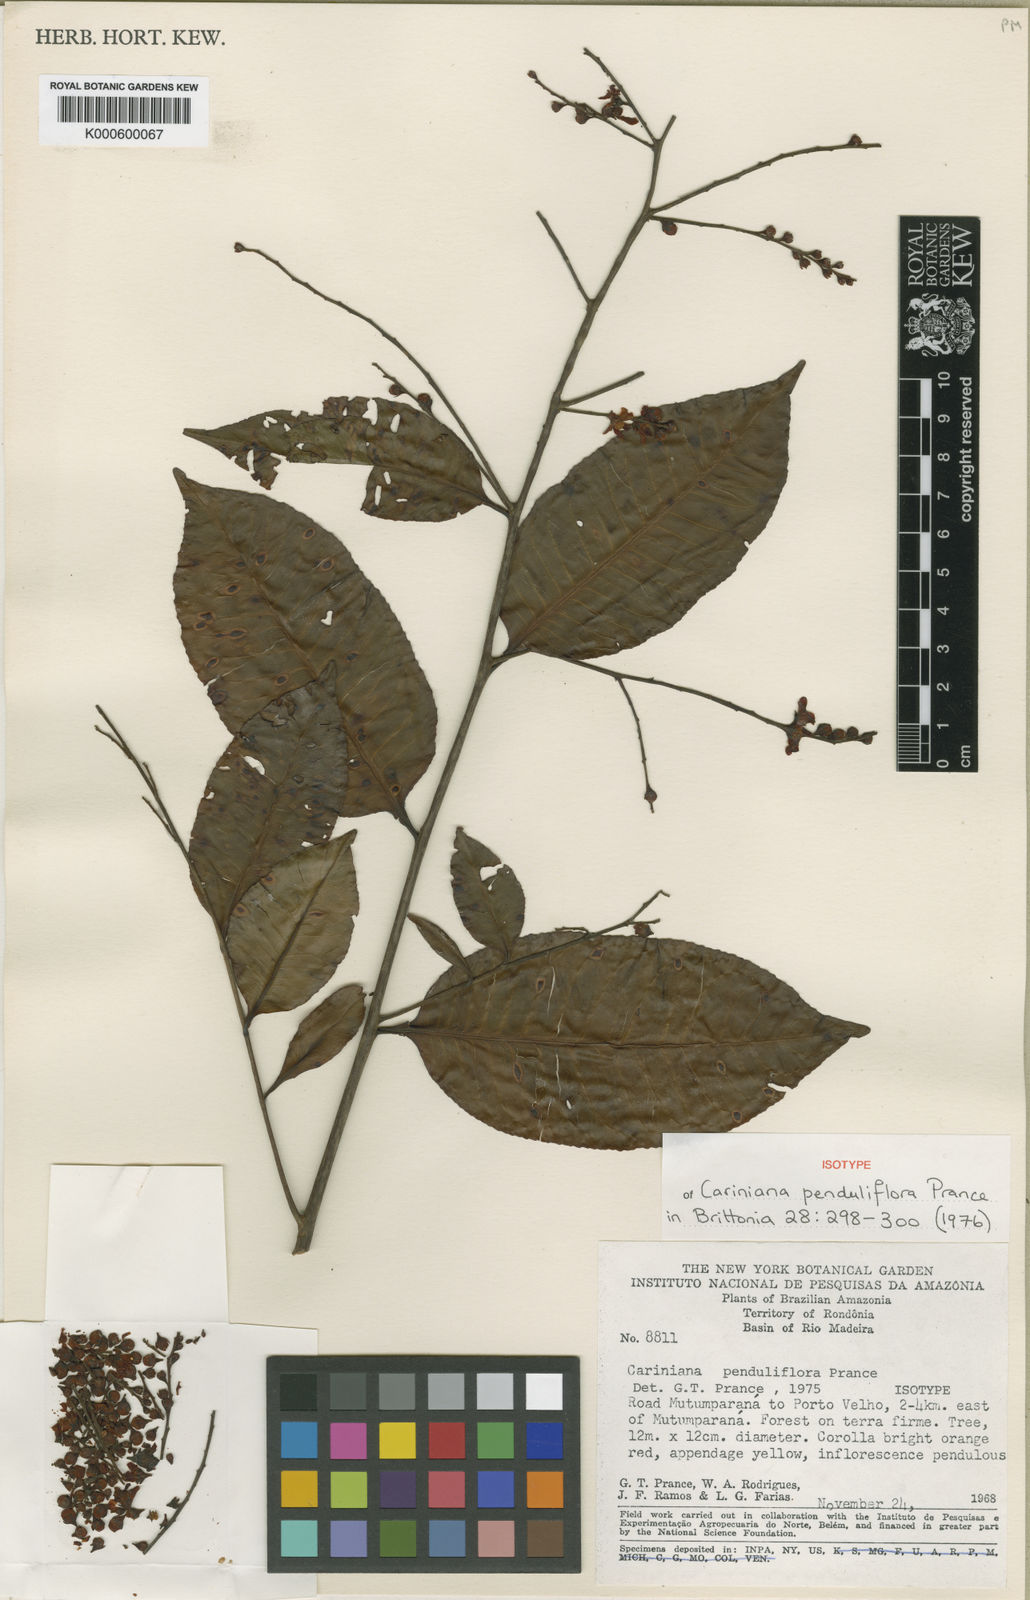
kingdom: Plantae
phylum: Tracheophyta
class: Magnoliopsida
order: Ericales
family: Lecythidaceae
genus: Cariniana
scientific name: Cariniana penduliflora
